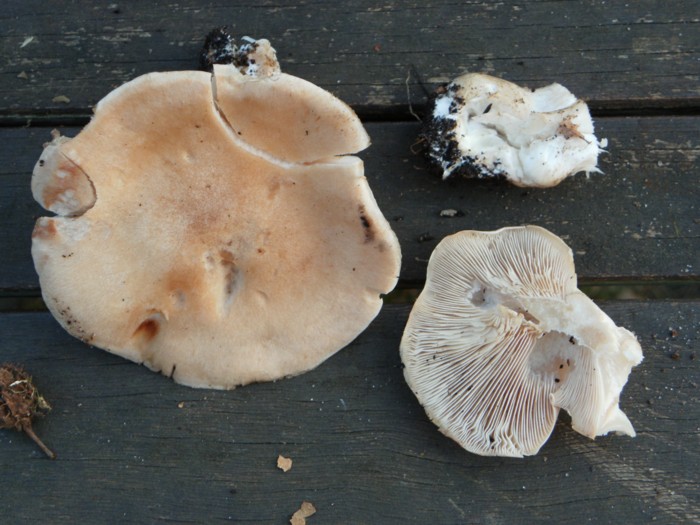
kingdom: Fungi
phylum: Basidiomycota
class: Agaricomycetes
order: Agaricales
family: Entolomataceae
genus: Clitopilus
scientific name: Clitopilus geminus
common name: kødfarvet troldhat
